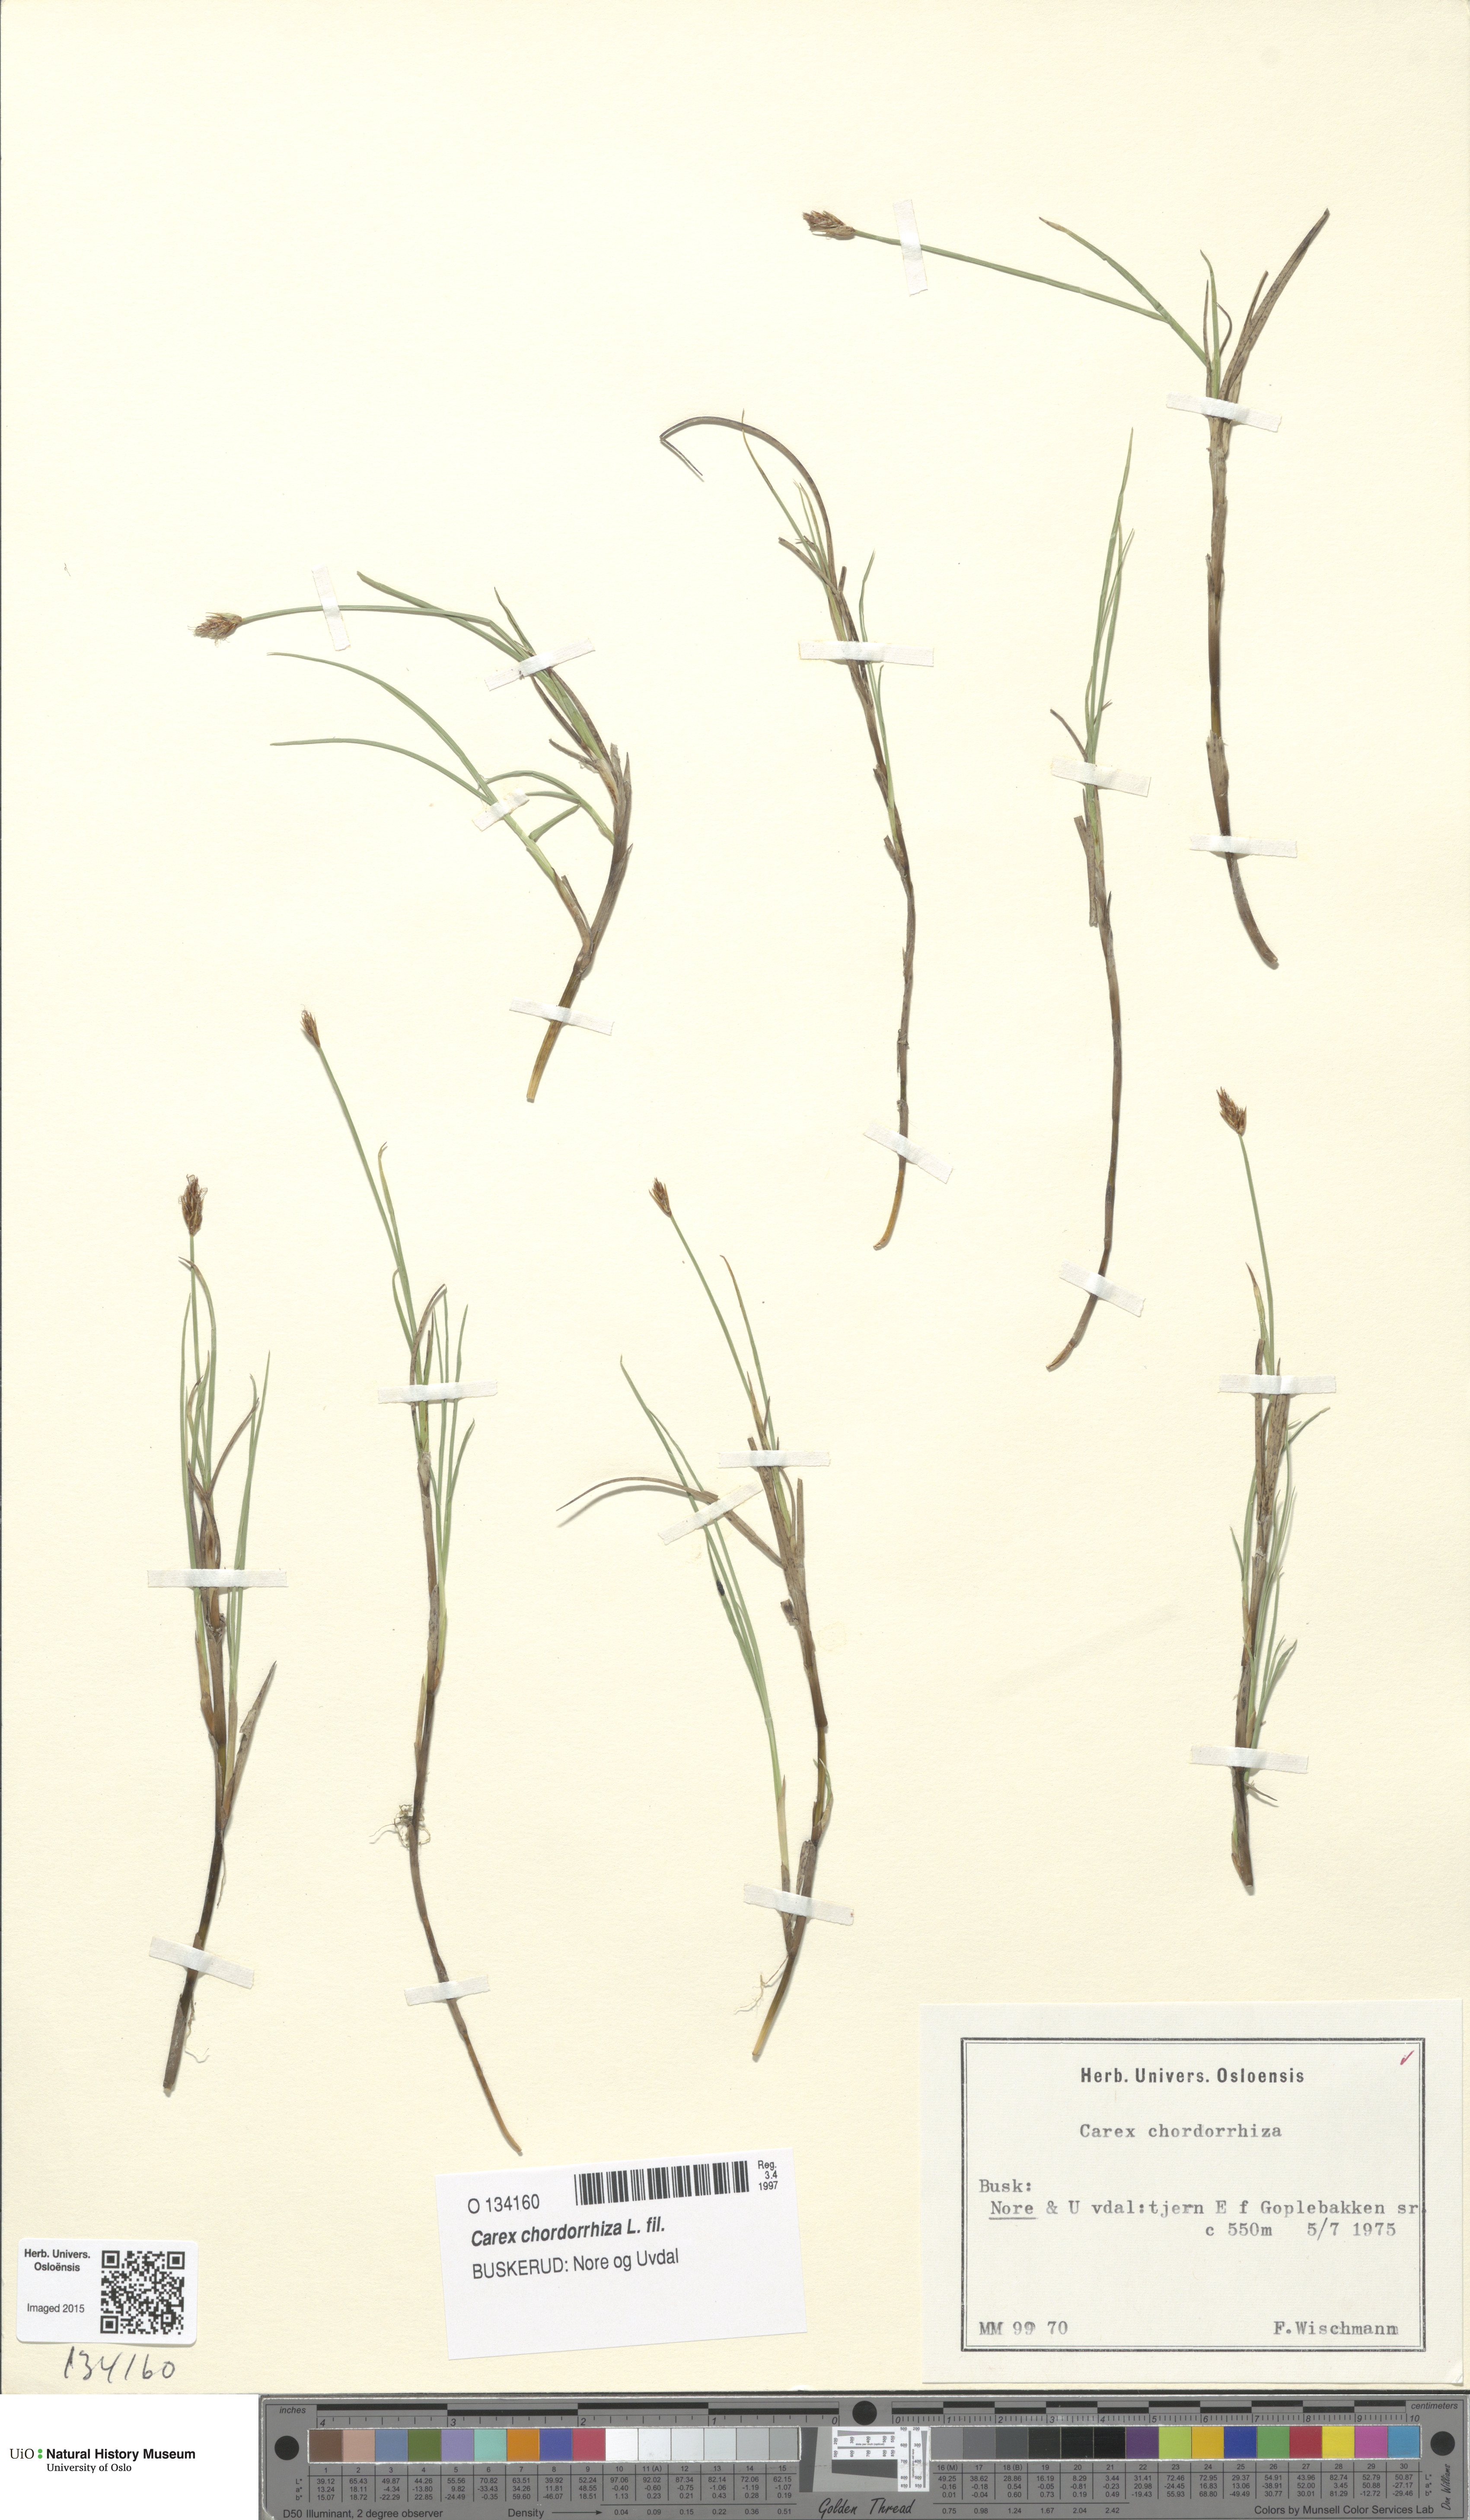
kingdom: Plantae
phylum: Tracheophyta
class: Liliopsida
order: Poales
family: Cyperaceae
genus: Carex
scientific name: Carex chordorrhiza
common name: String sedge
